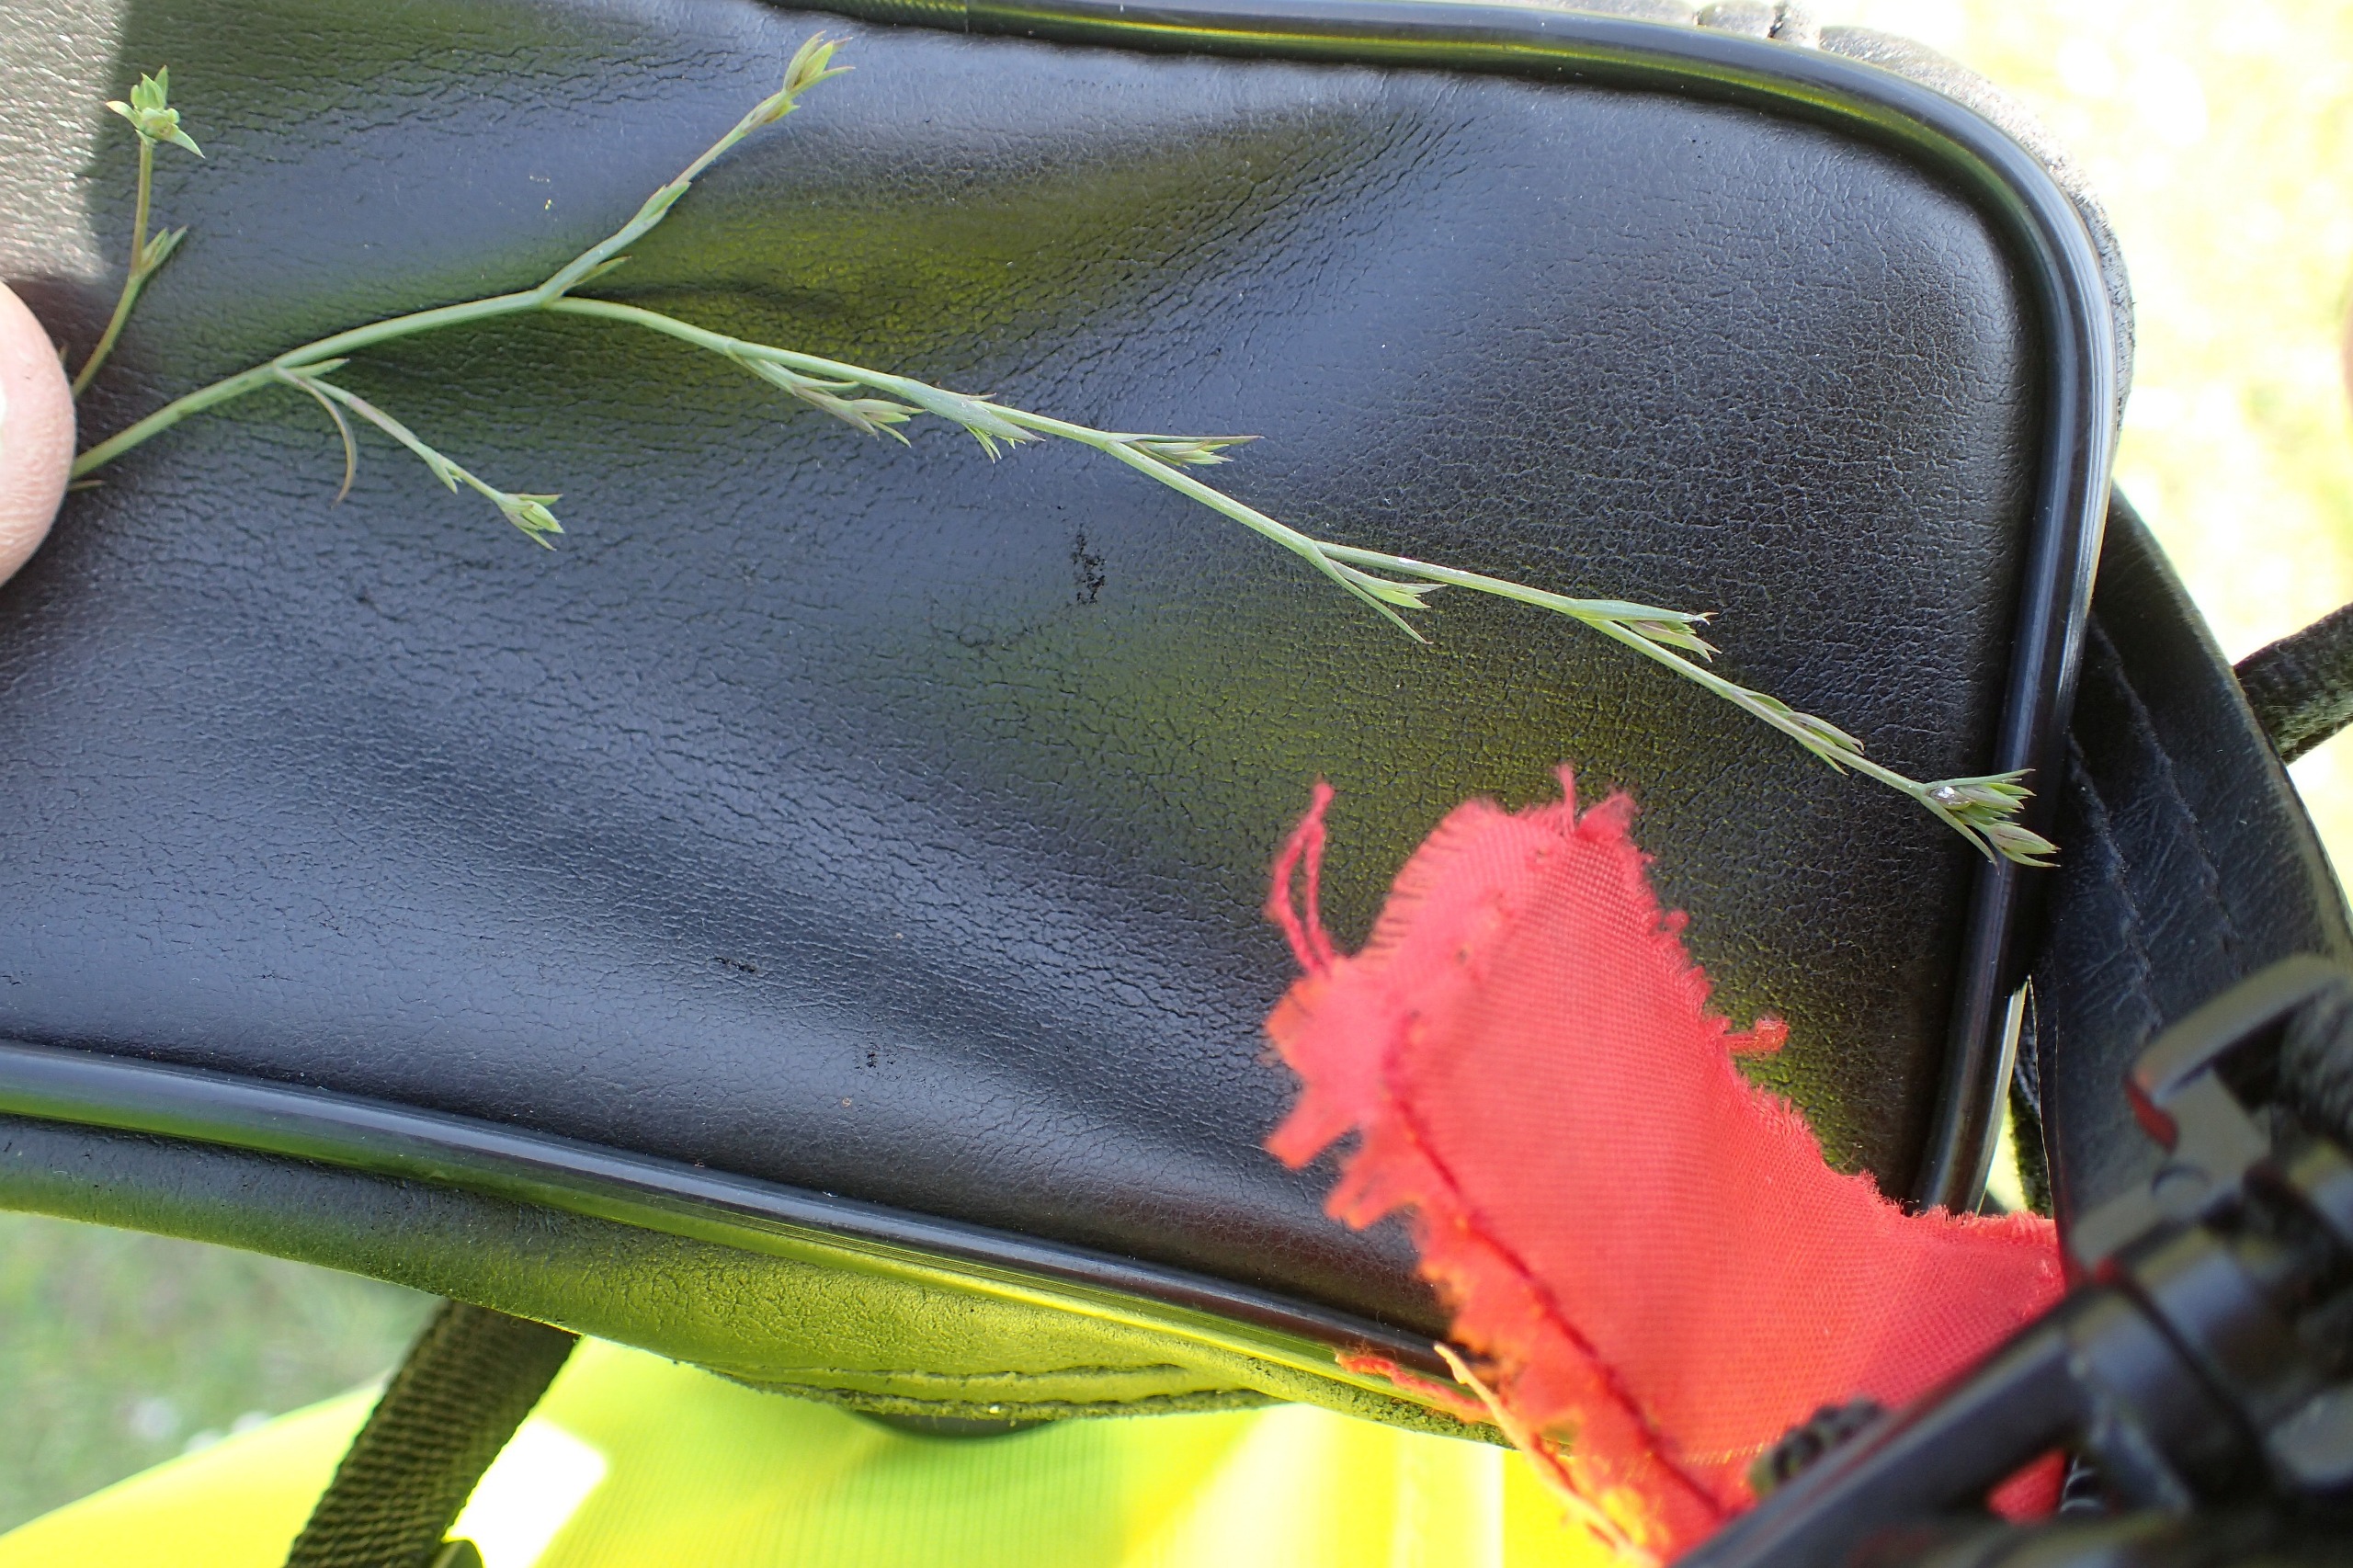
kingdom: Plantae
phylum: Tracheophyta
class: Magnoliopsida
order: Apiales
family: Apiaceae
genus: Bupleurum
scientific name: Bupleurum tenuissimum
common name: Smalbladet hareøre
